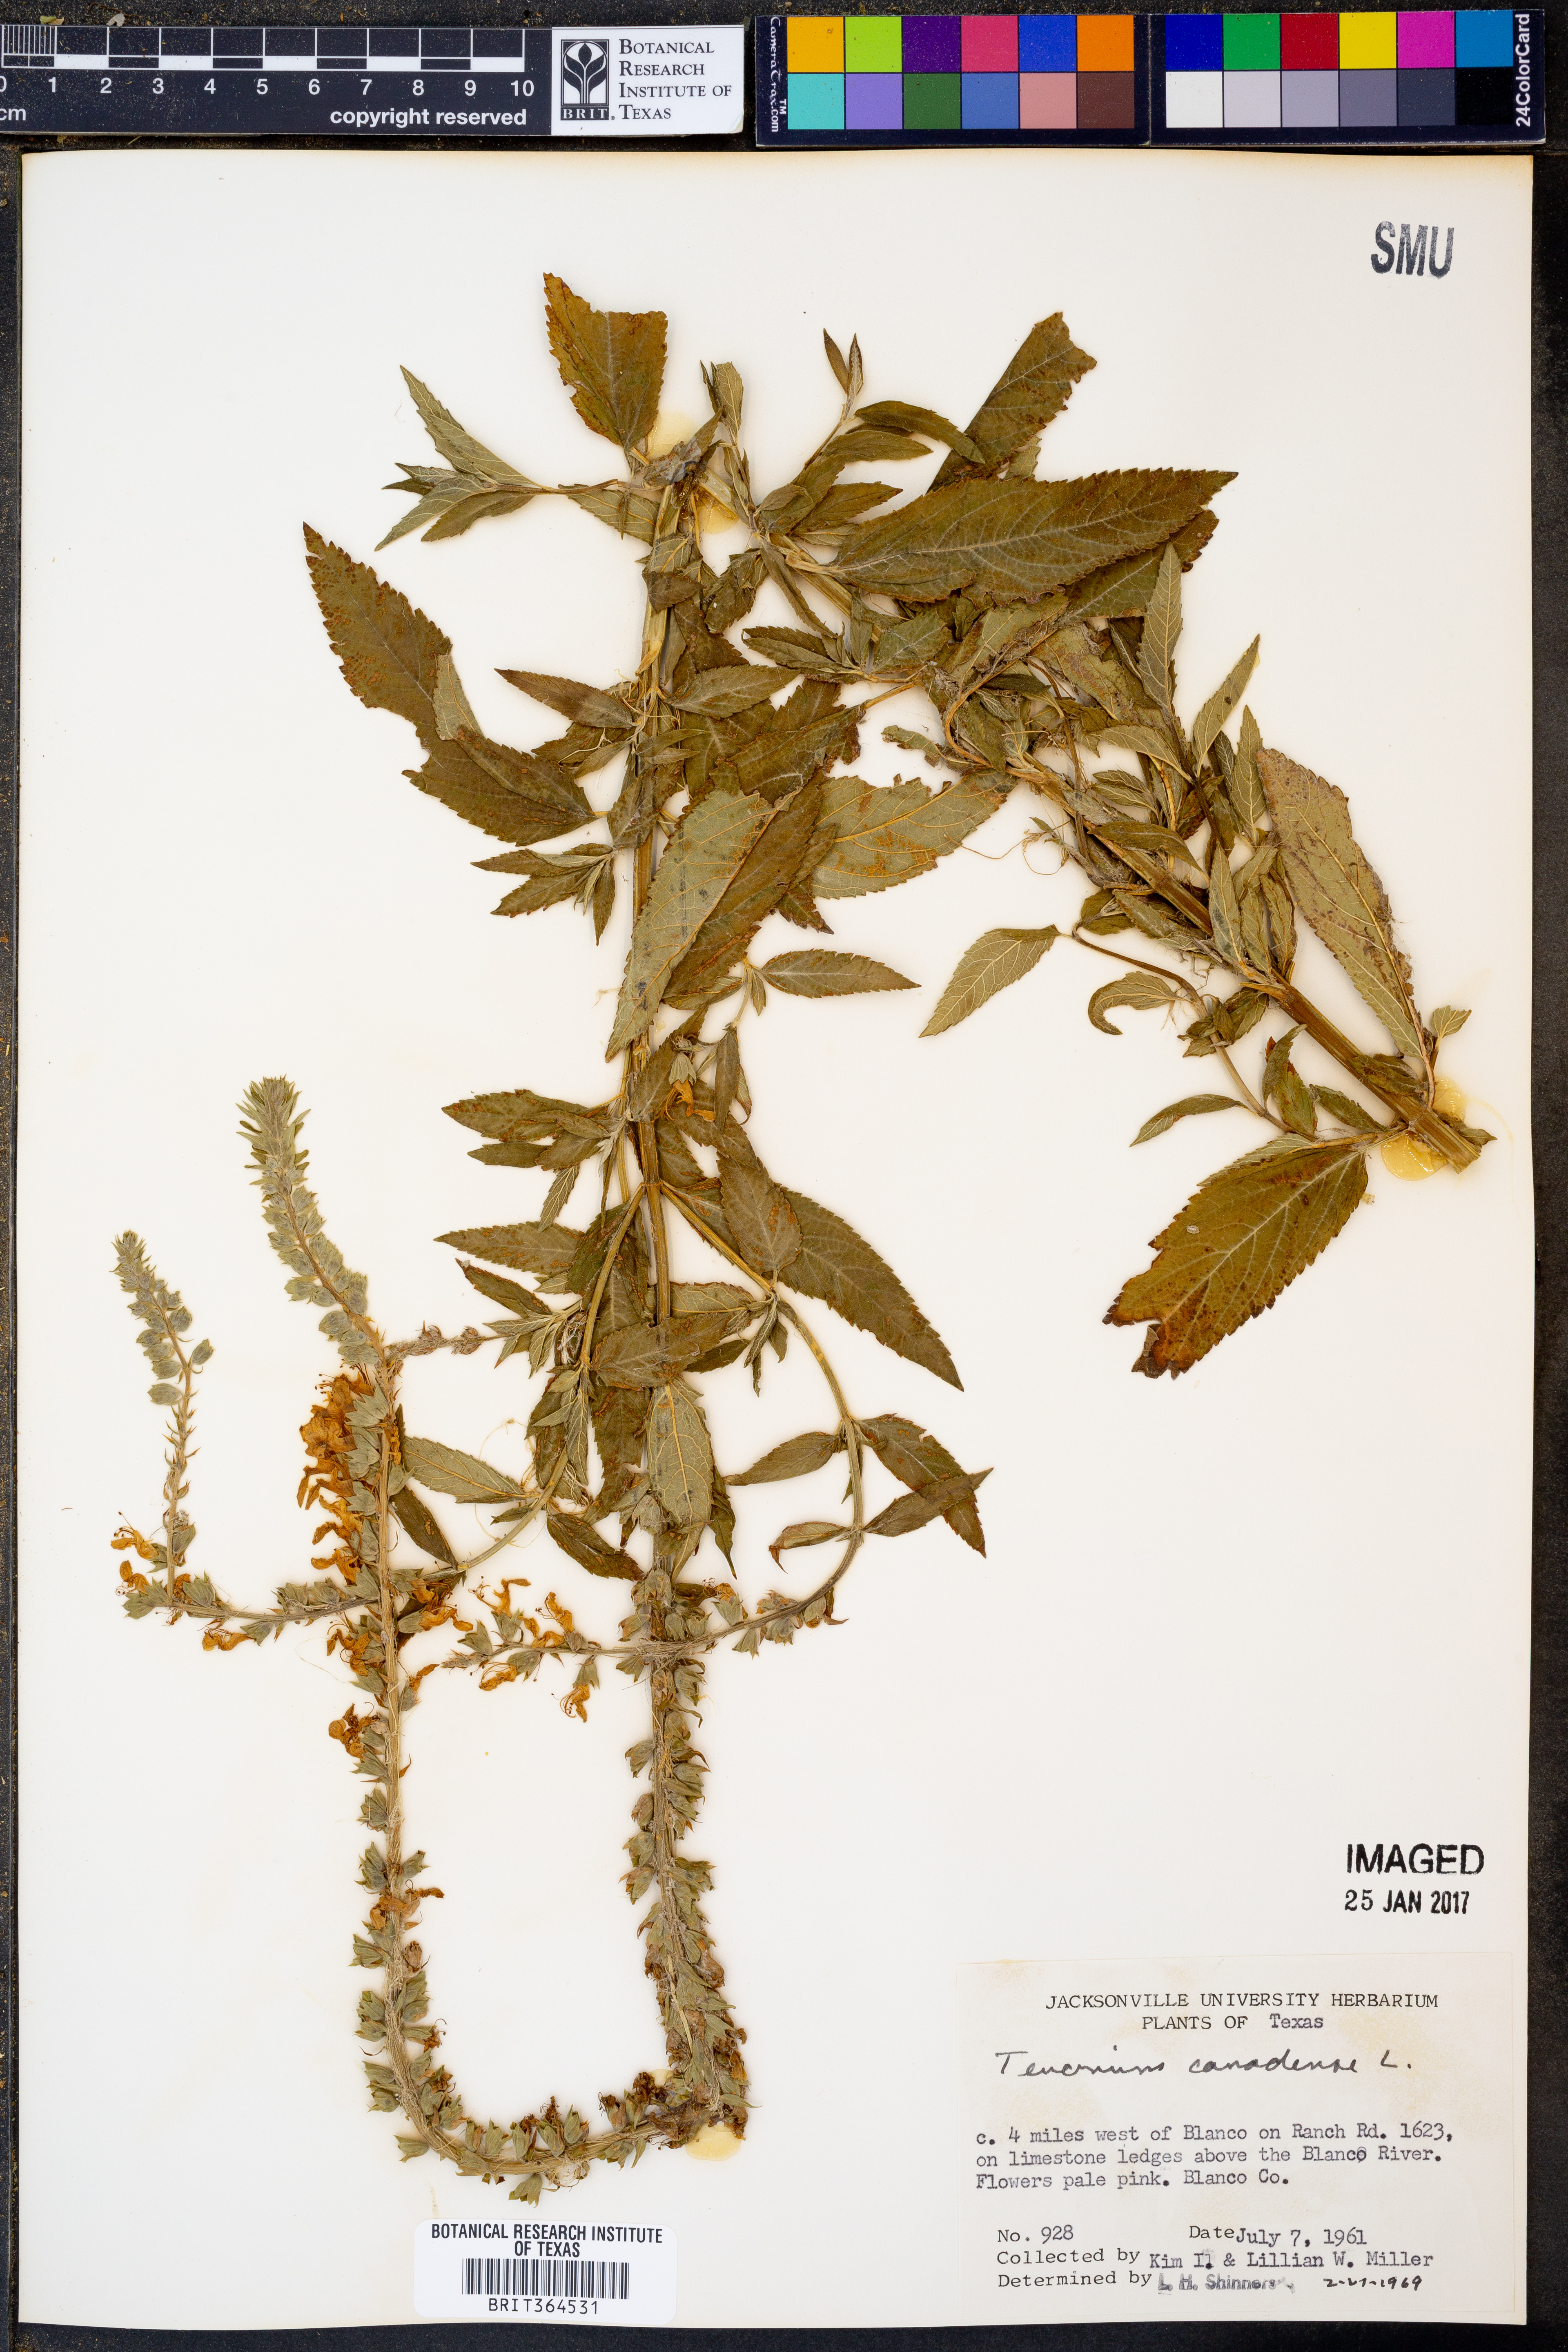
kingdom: Plantae
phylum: Tracheophyta
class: Magnoliopsida
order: Lamiales
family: Lamiaceae
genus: Teucrium
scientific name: Teucrium canadense
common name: American germander
